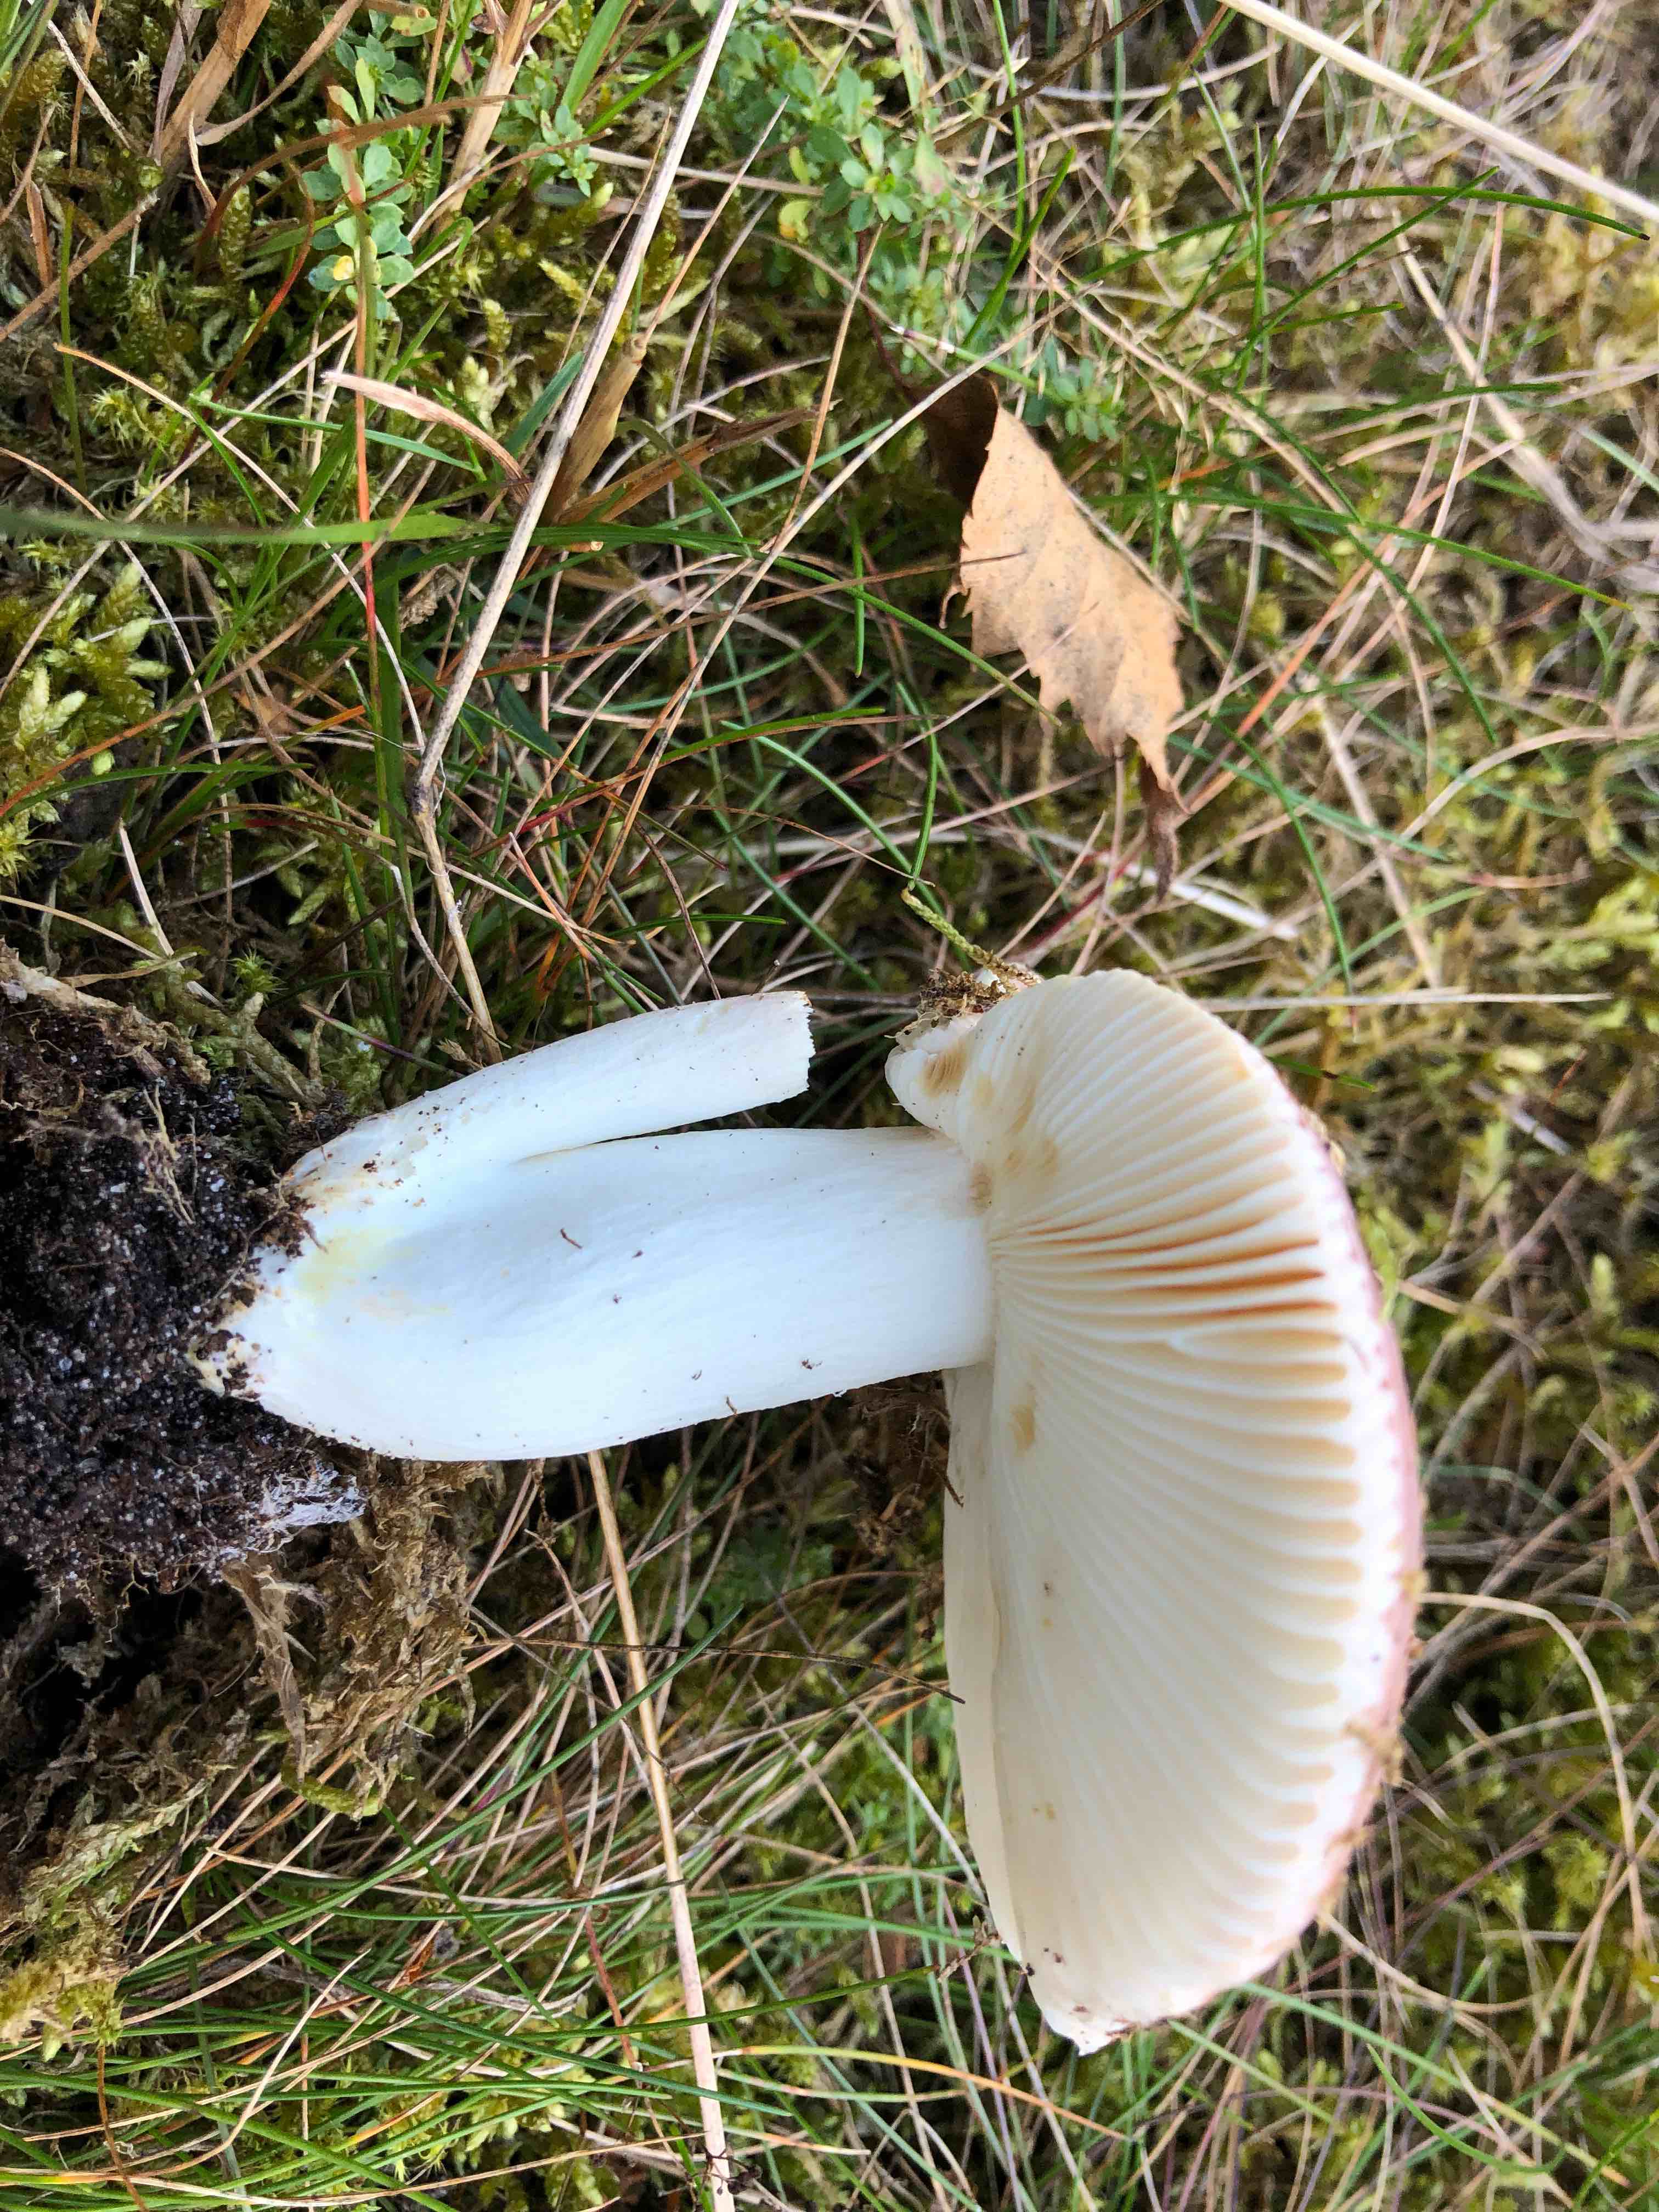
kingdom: Fungi
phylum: Basidiomycota
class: Agaricomycetes
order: Russulales
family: Russulaceae
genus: Russula
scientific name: Russula vesca
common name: spiselig skørhat
